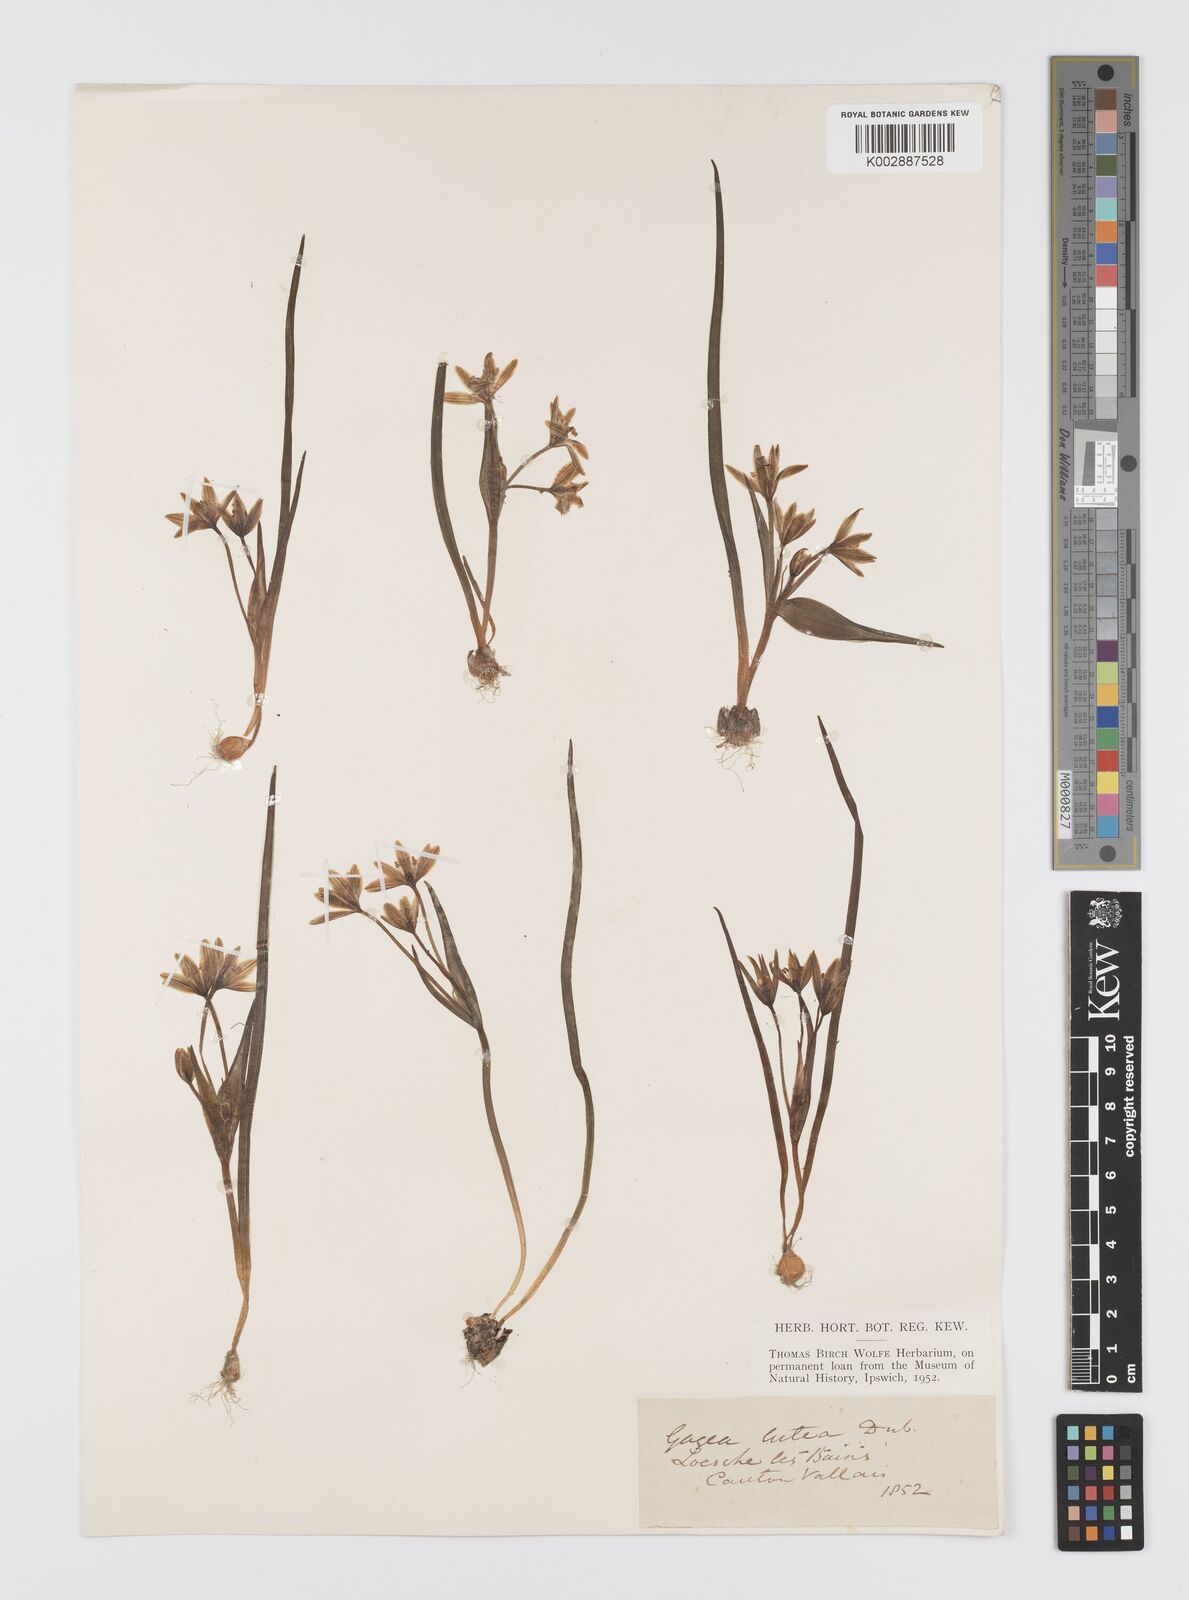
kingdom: Plantae
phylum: Tracheophyta
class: Liliopsida
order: Liliales
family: Liliaceae
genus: Gagea
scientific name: Gagea lutea
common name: Yellow star-of-bethlehem
